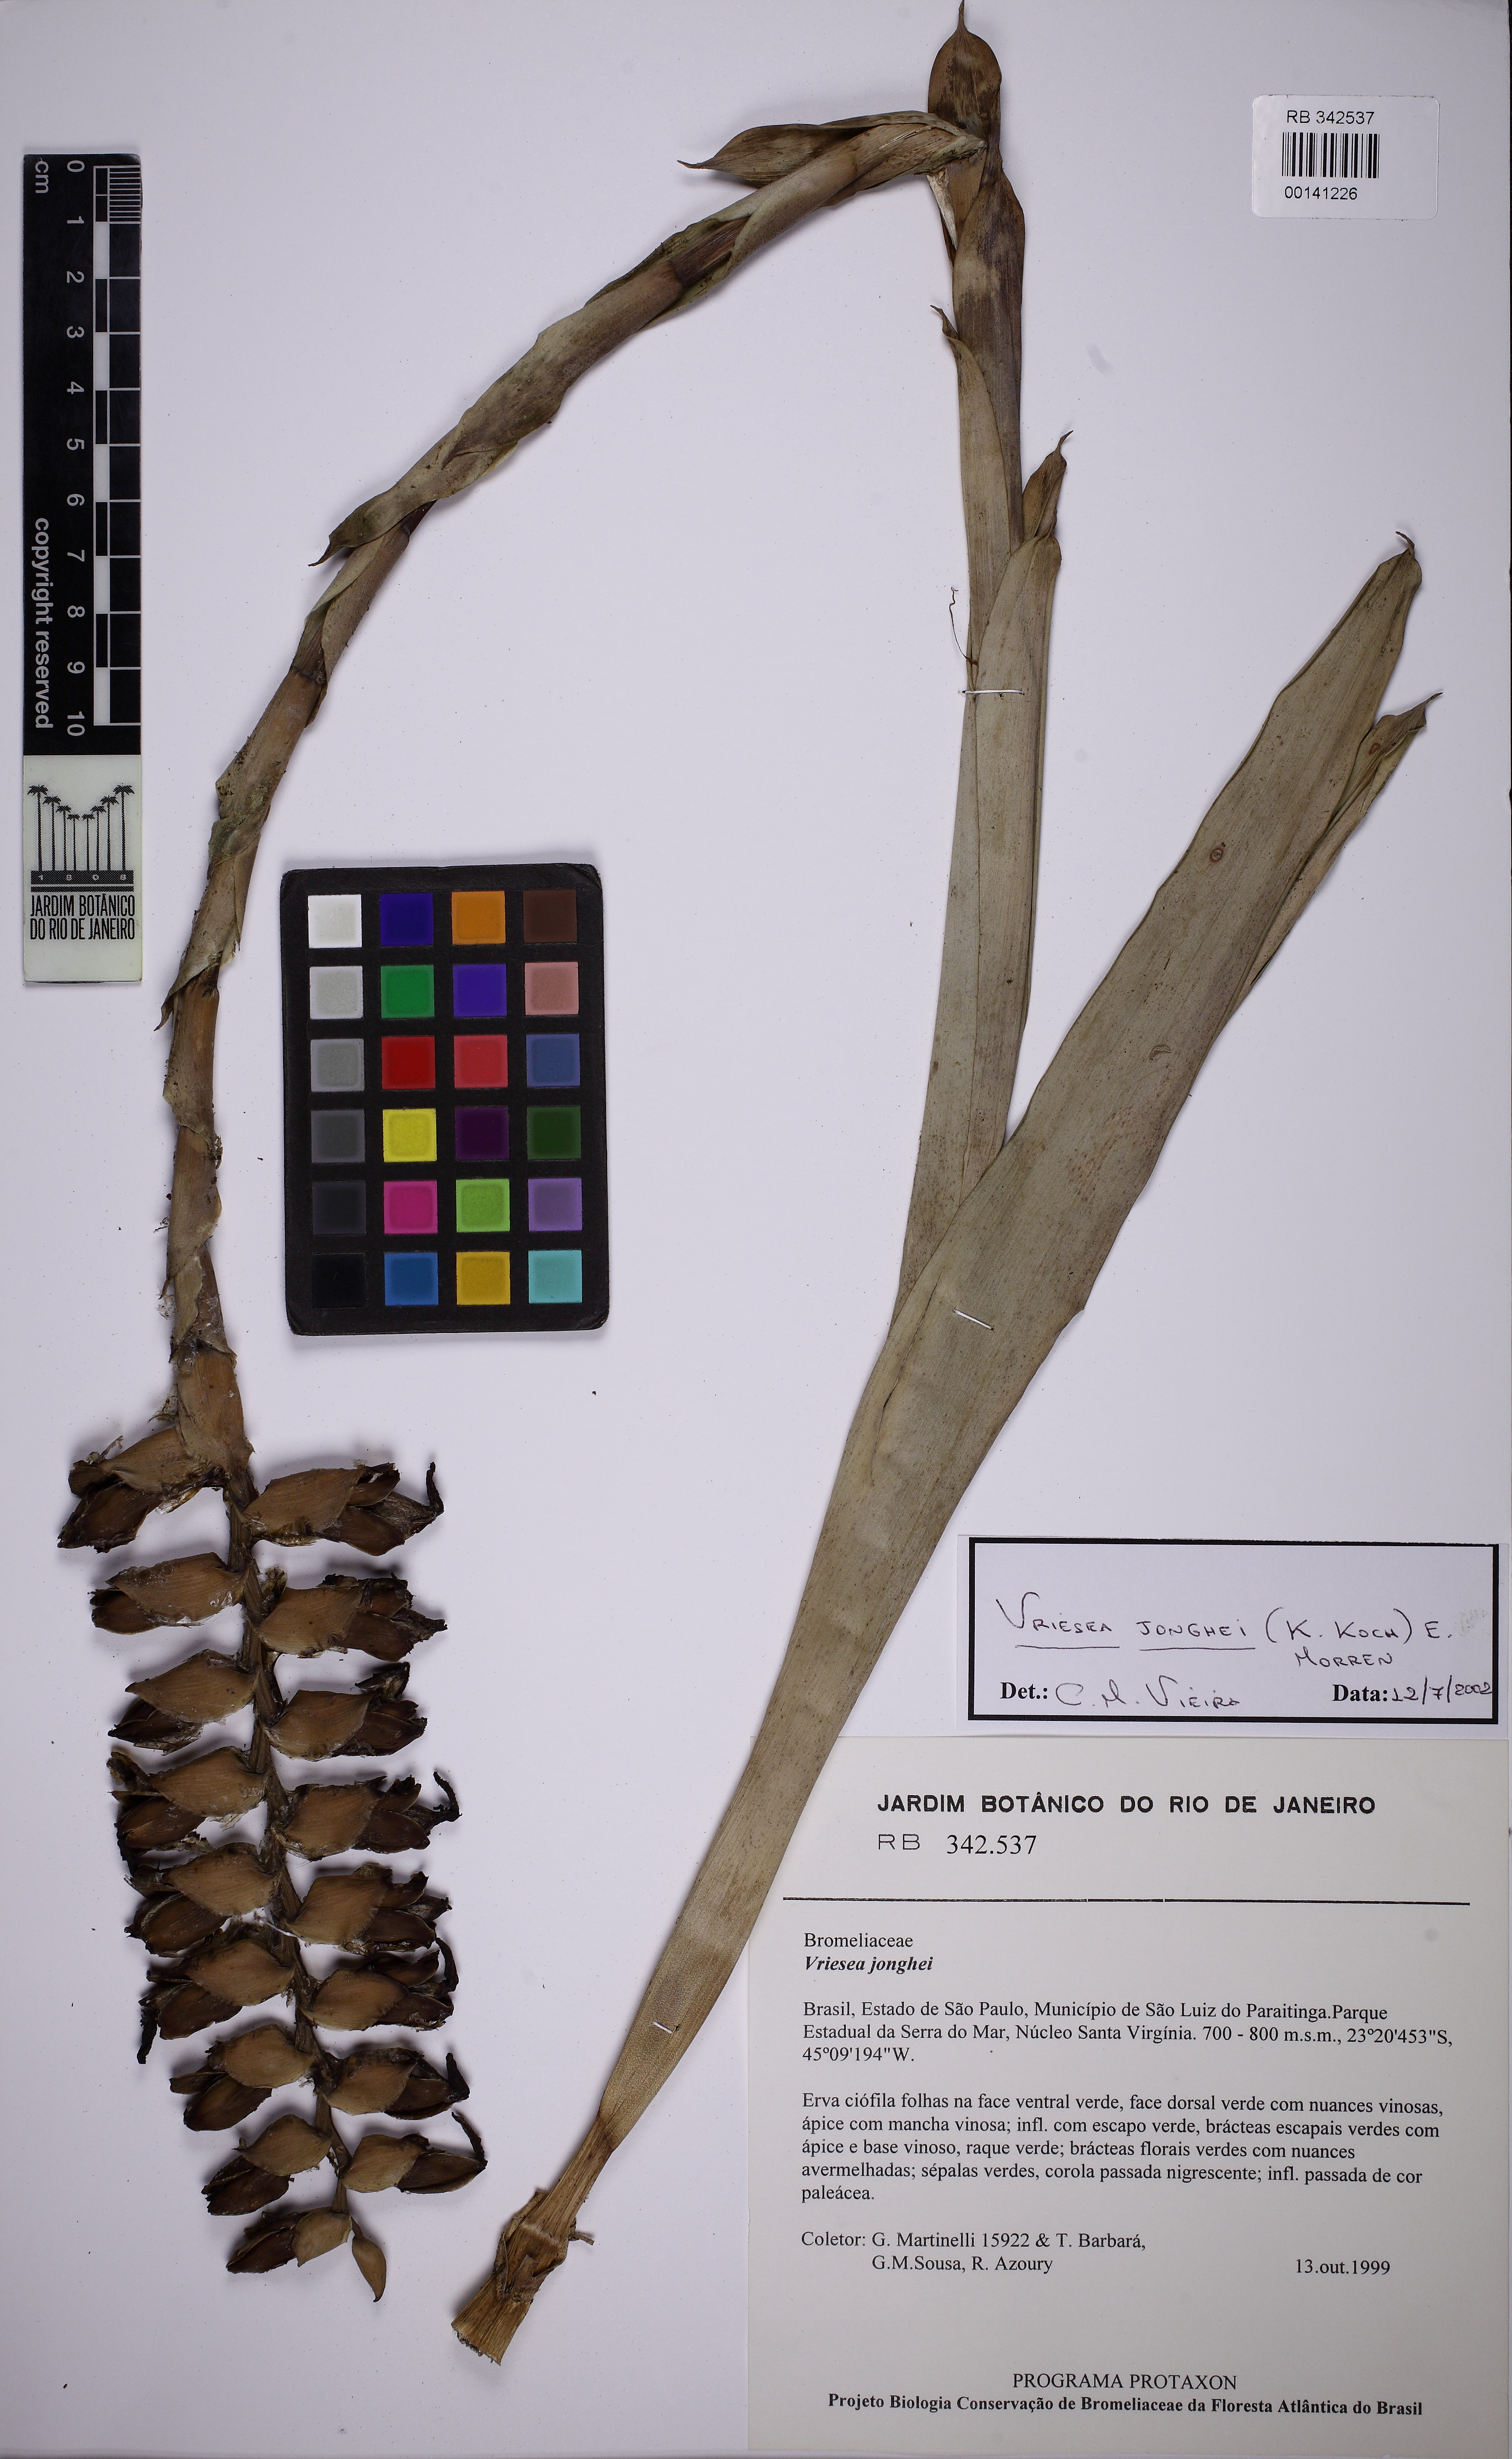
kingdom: Plantae
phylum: Tracheophyta
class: Liliopsida
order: Poales
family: Bromeliaceae
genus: Vriesea
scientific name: Vriesea jonghei
